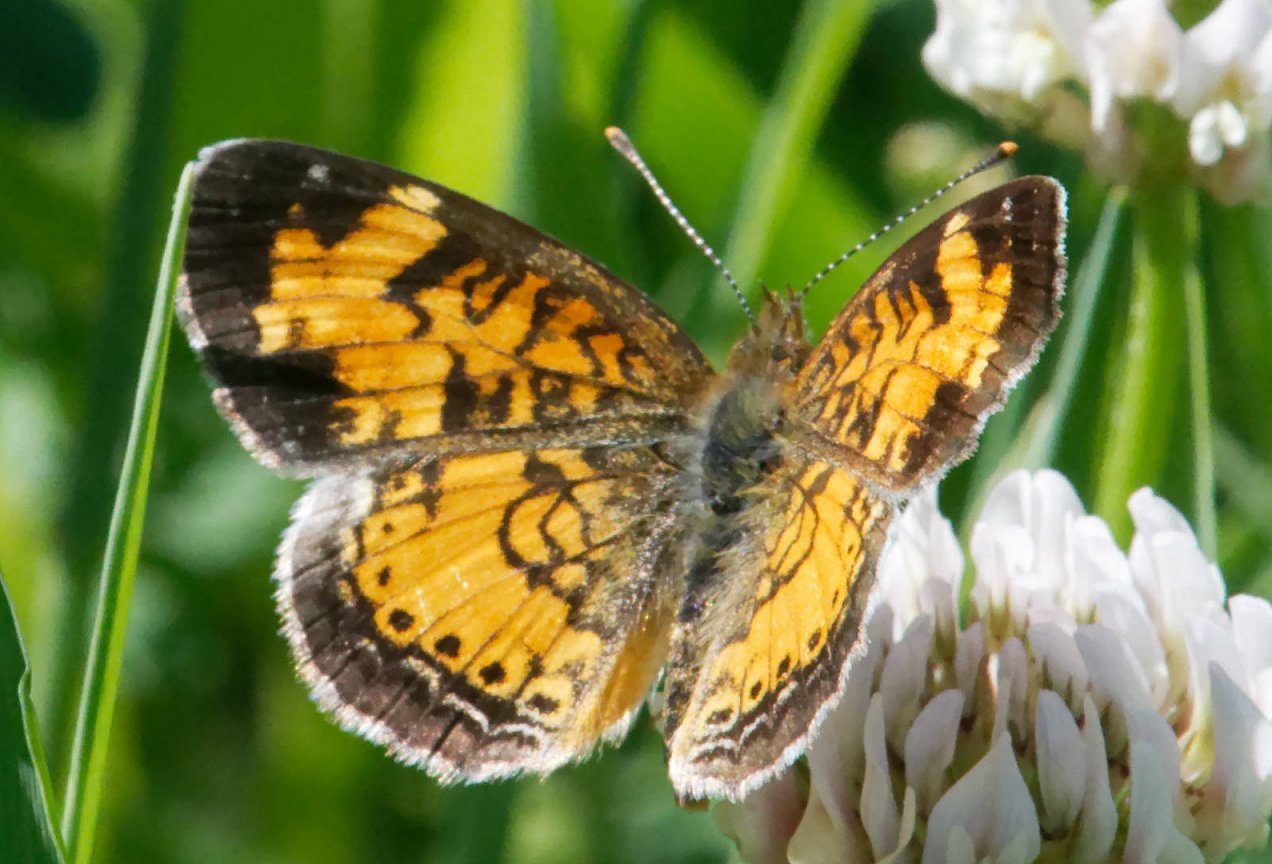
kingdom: Animalia
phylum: Arthropoda
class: Insecta
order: Lepidoptera
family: Nymphalidae
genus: Phyciodes
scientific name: Phyciodes
